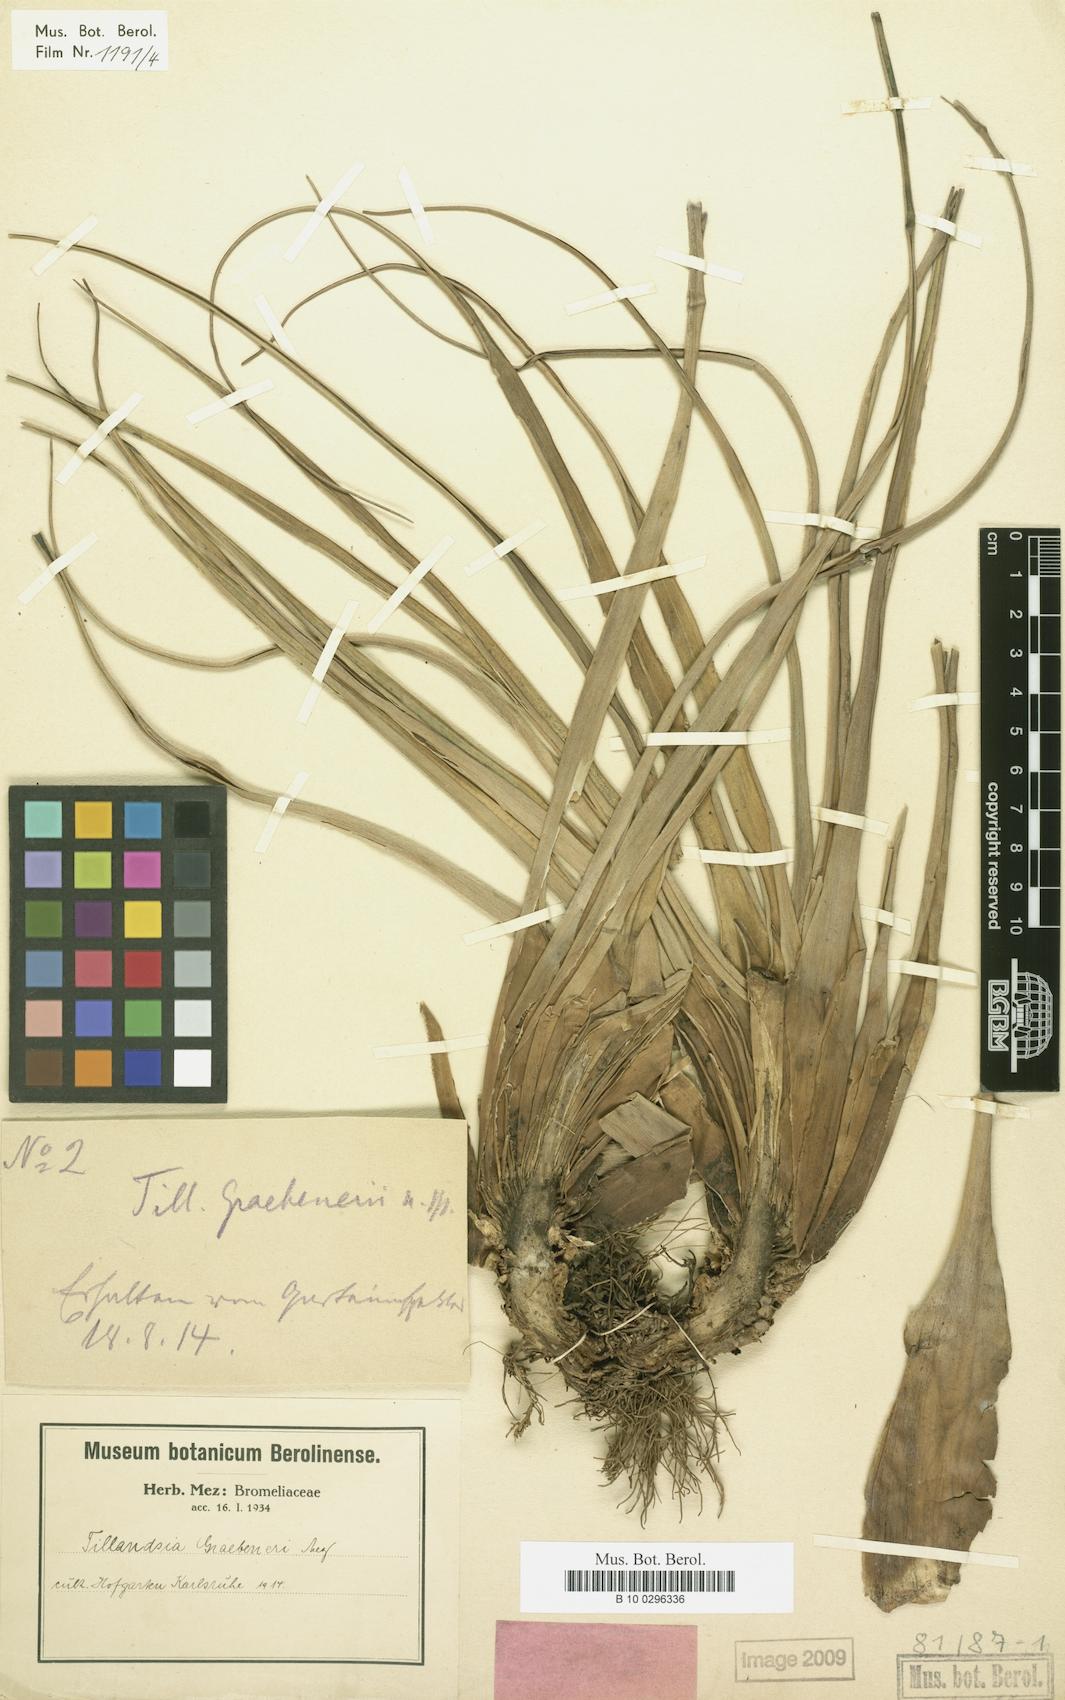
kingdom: Plantae
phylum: Tracheophyta
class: Liliopsida
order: Poales
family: Bromeliaceae
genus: Tillandsia
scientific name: Tillandsia graebeneri
